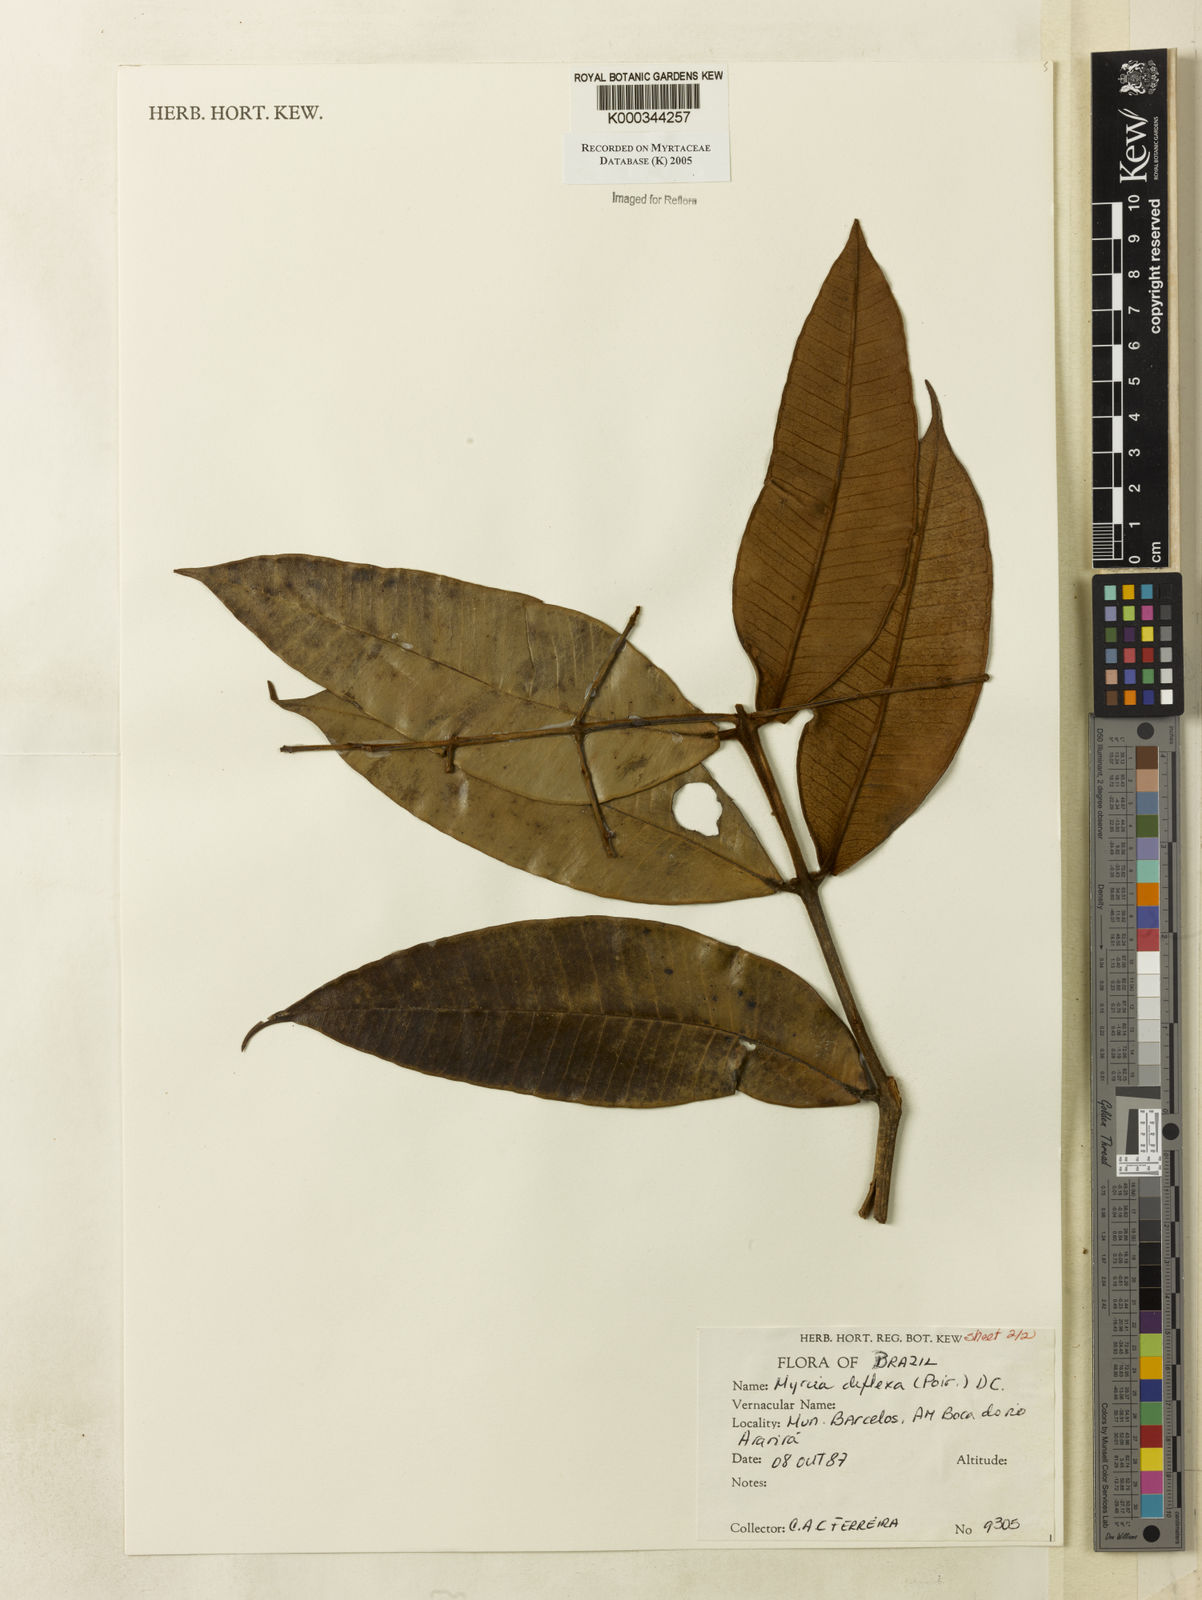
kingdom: Plantae
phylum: Tracheophyta
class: Magnoliopsida
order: Myrtales
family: Myrtaceae
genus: Myrcia
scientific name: Myrcia deflexa
